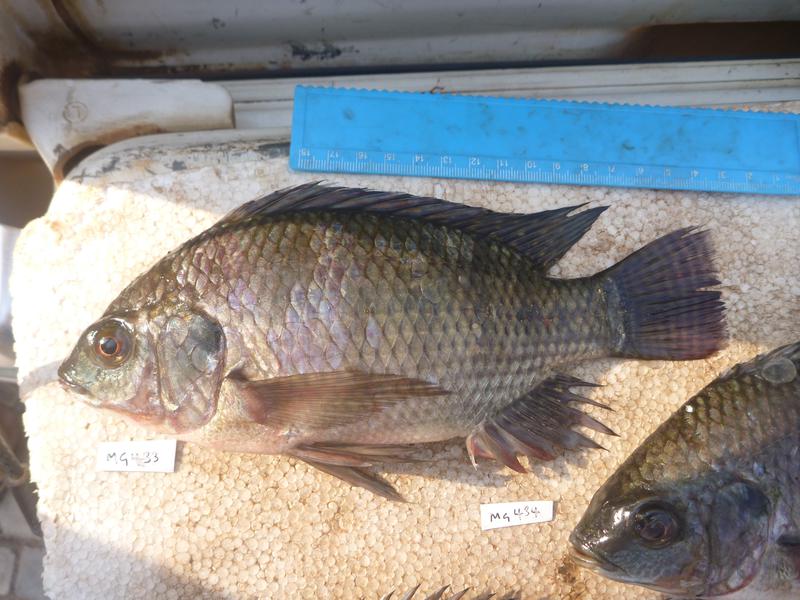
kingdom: Animalia
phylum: Chordata
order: Perciformes
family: Cichlidae
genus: Oreochromis
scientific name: Oreochromis niloticus
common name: Nile tilapia
